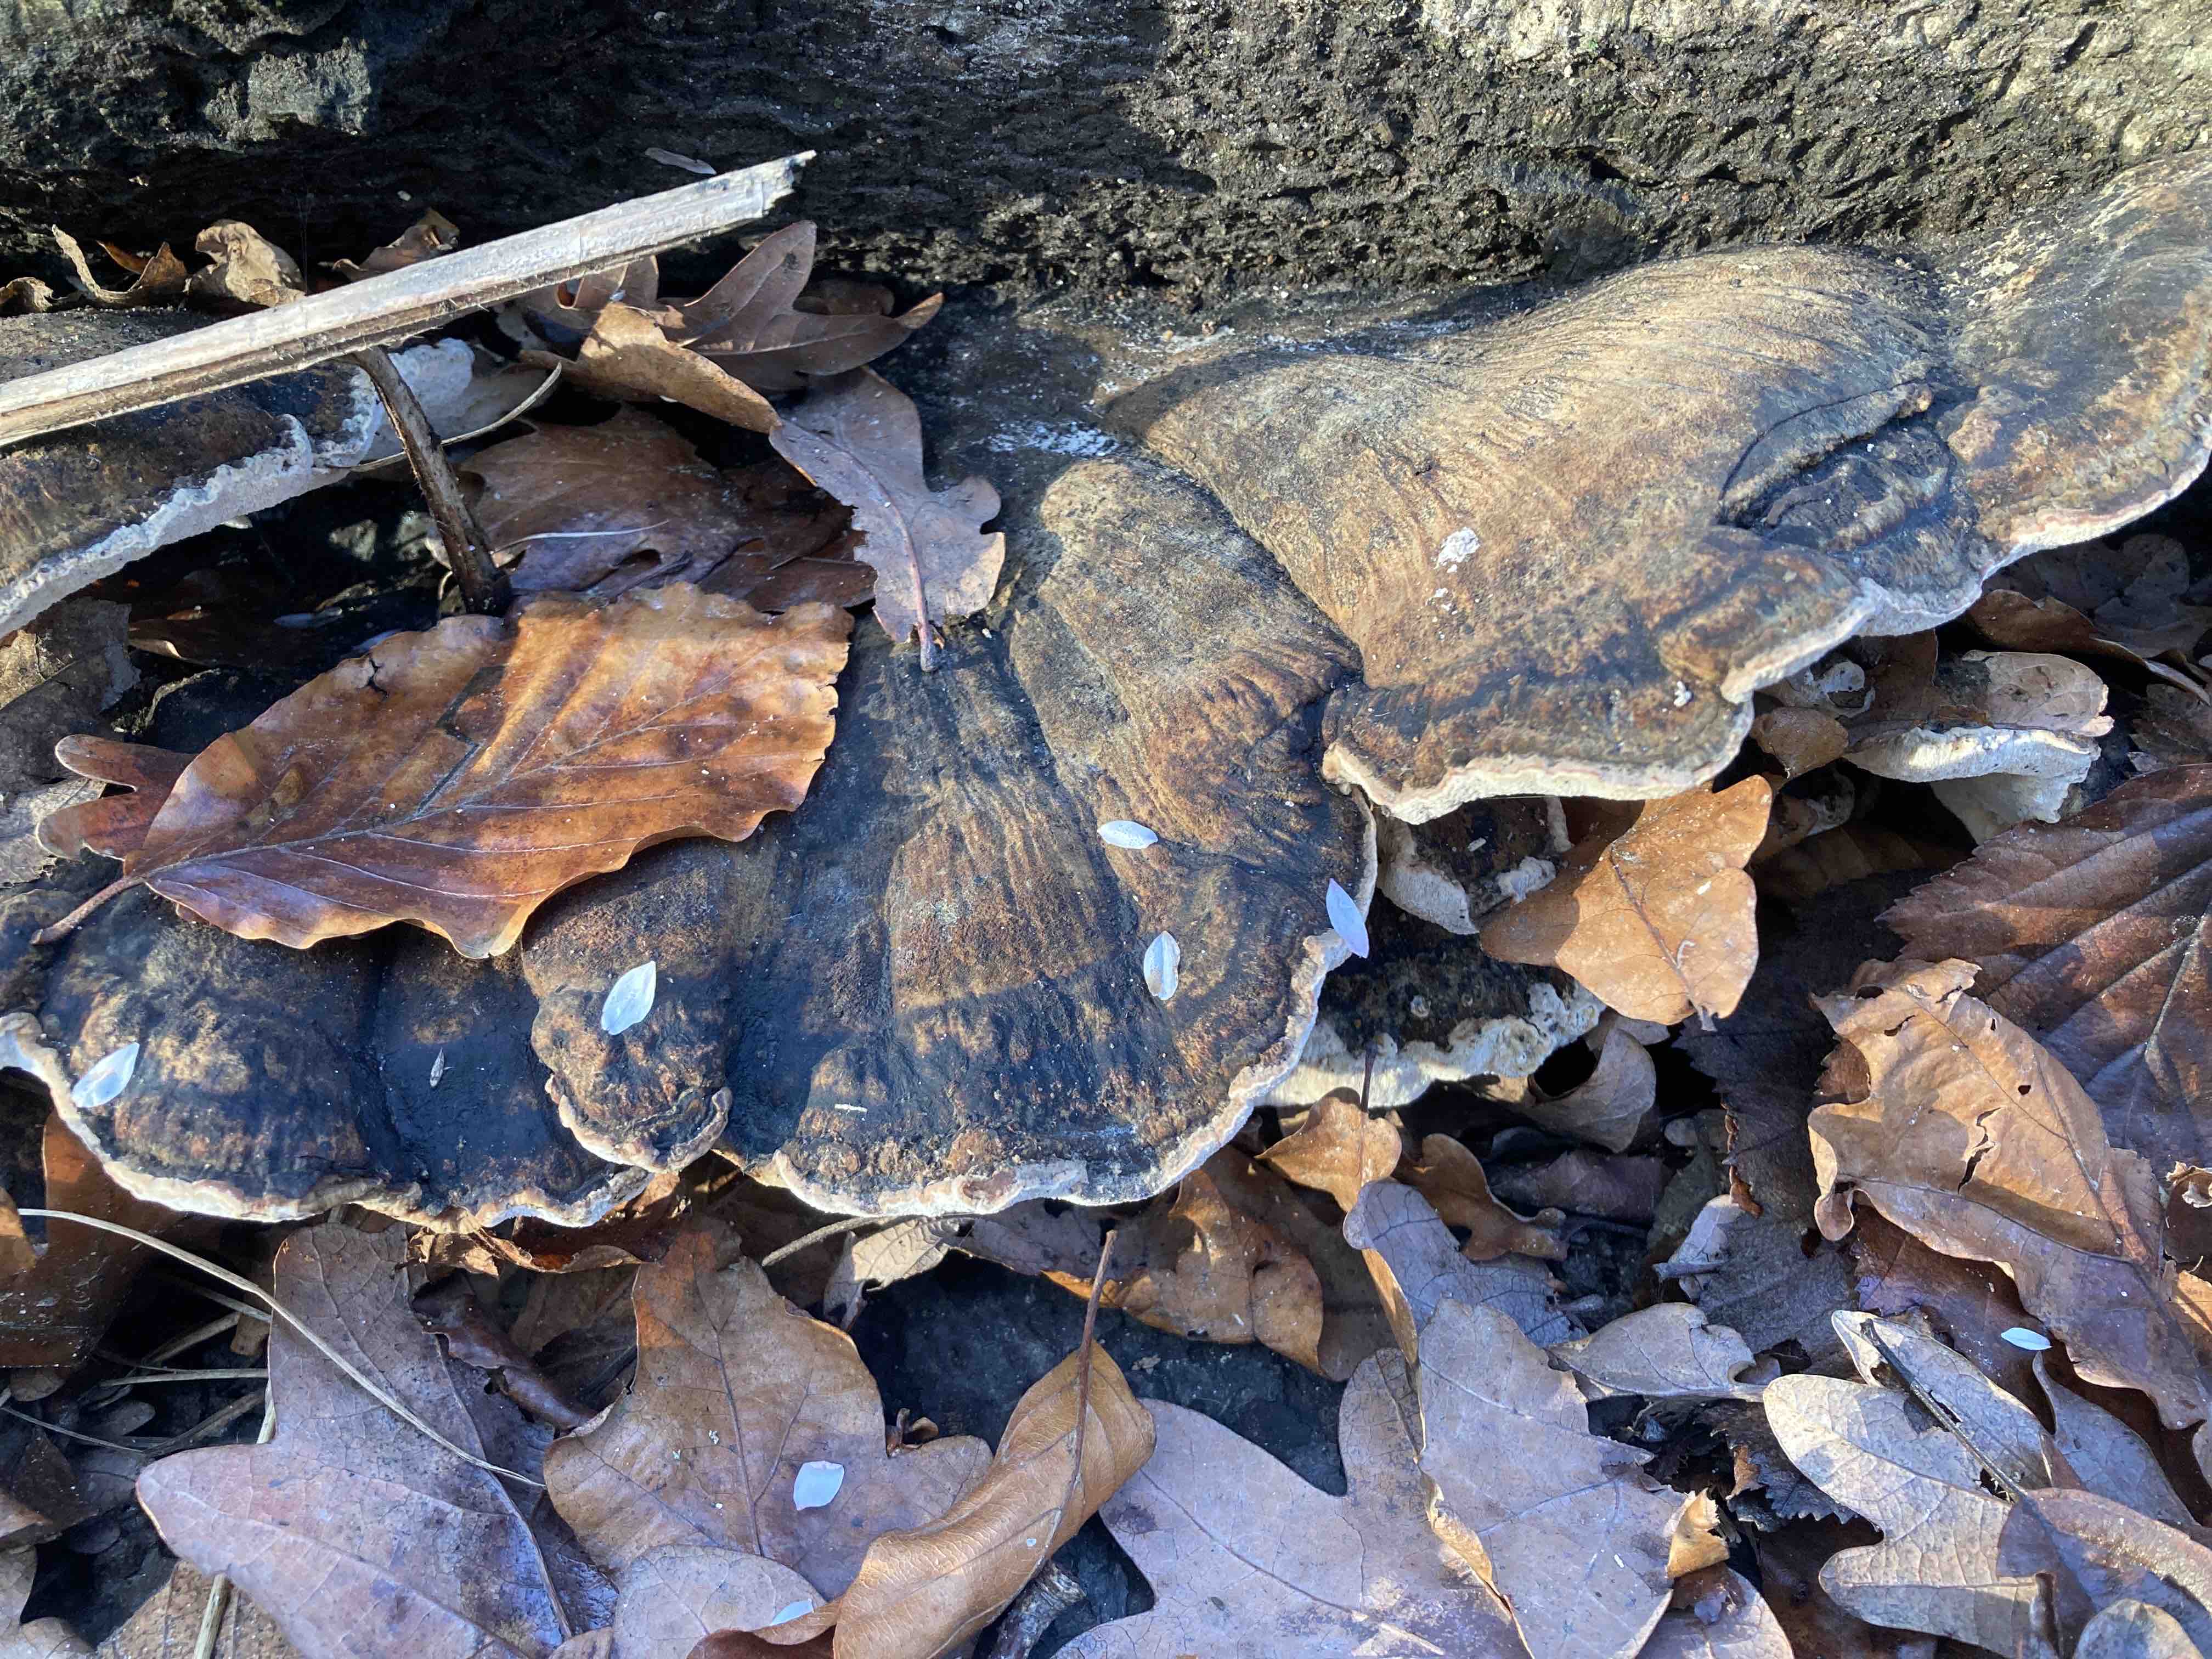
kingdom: Fungi
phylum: Basidiomycota
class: Agaricomycetes
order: Polyporales
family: Ischnodermataceae
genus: Ischnoderma
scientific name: Ischnoderma resinosum
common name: løv-tjæreporesvamp
